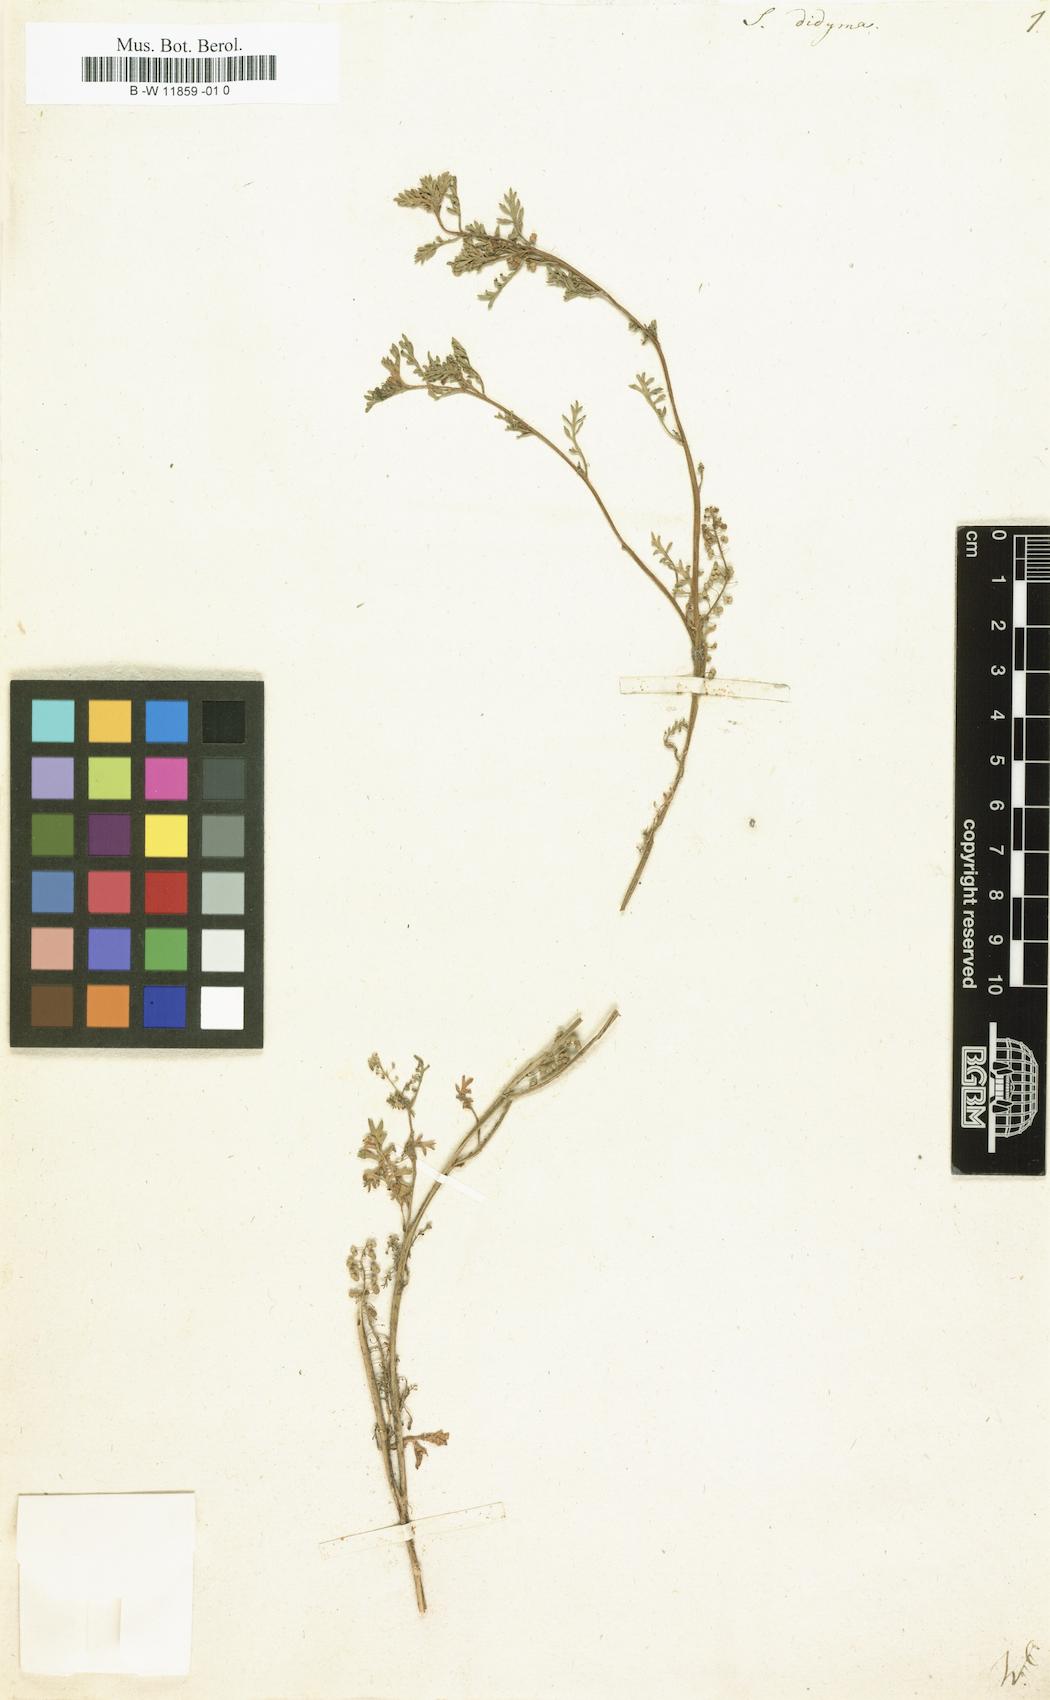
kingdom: Plantae
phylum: Tracheophyta
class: Magnoliopsida
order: Brassicales
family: Brassicaceae
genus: Lepidium
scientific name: Lepidium
